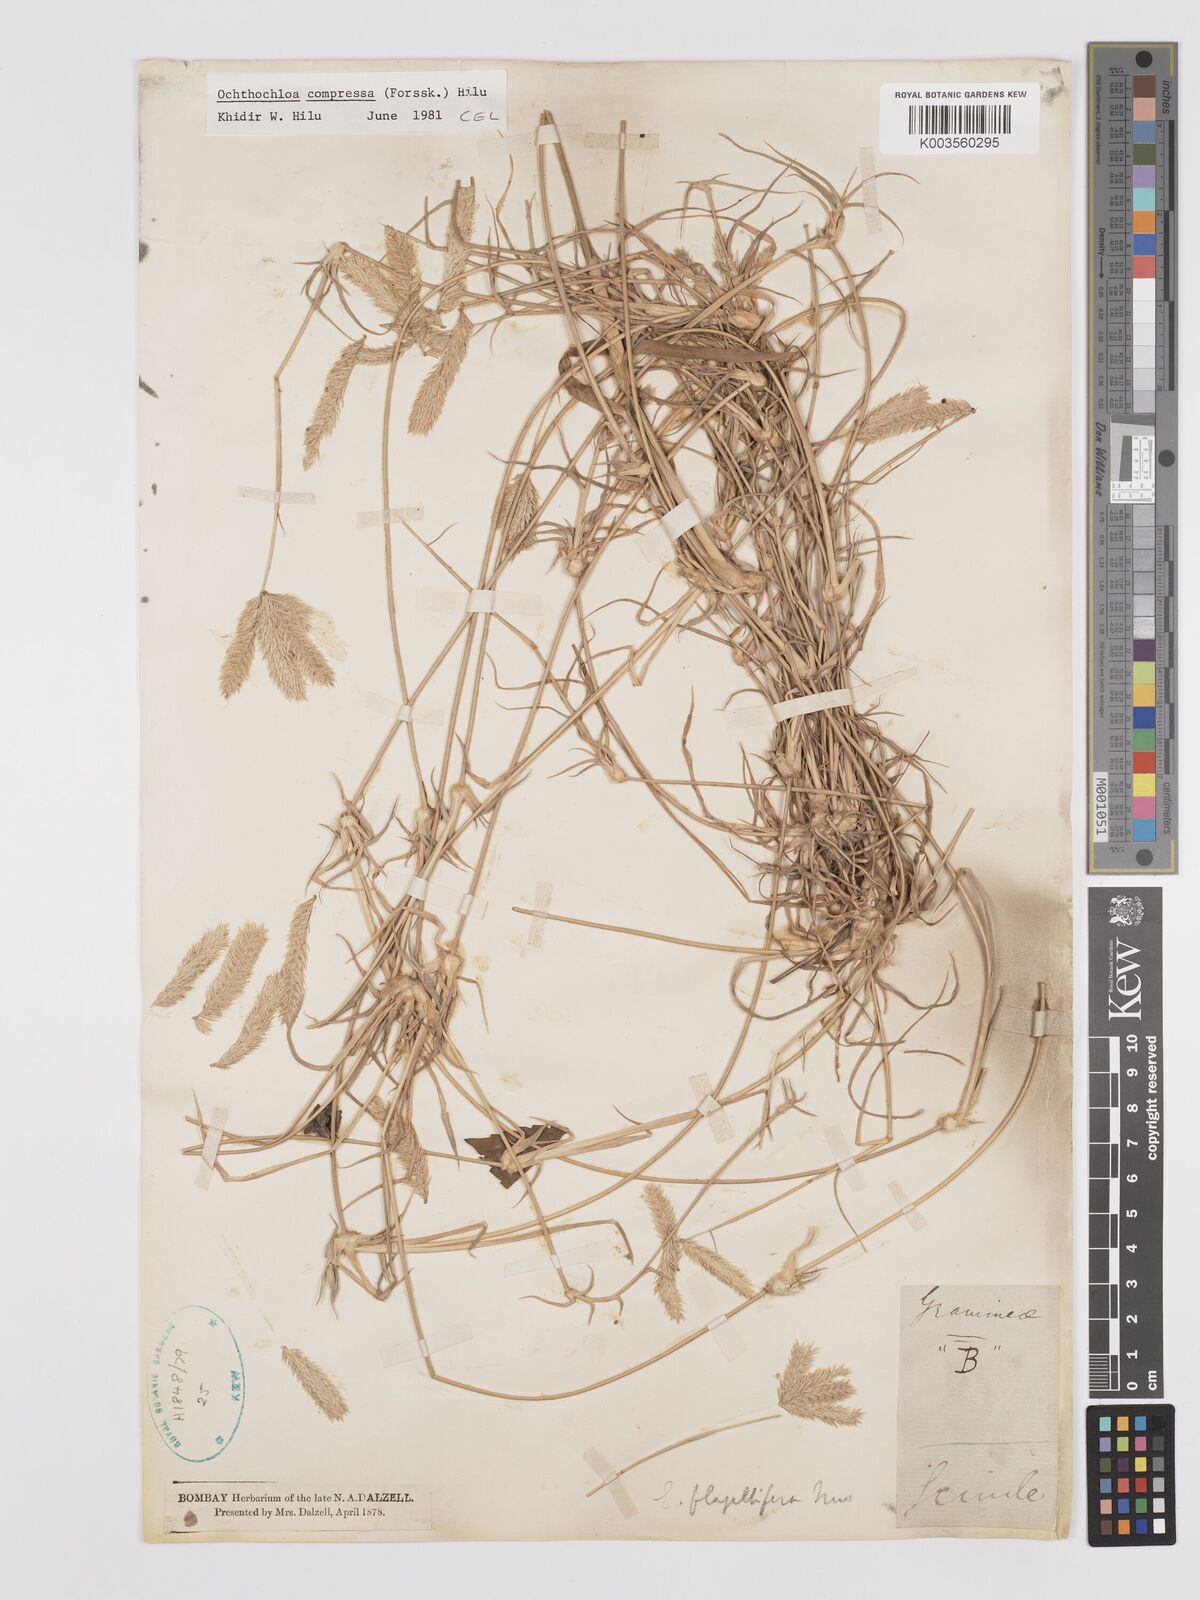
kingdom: Plantae
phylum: Tracheophyta
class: Liliopsida
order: Poales
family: Poaceae
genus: Chloris
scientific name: Chloris flagellifera
